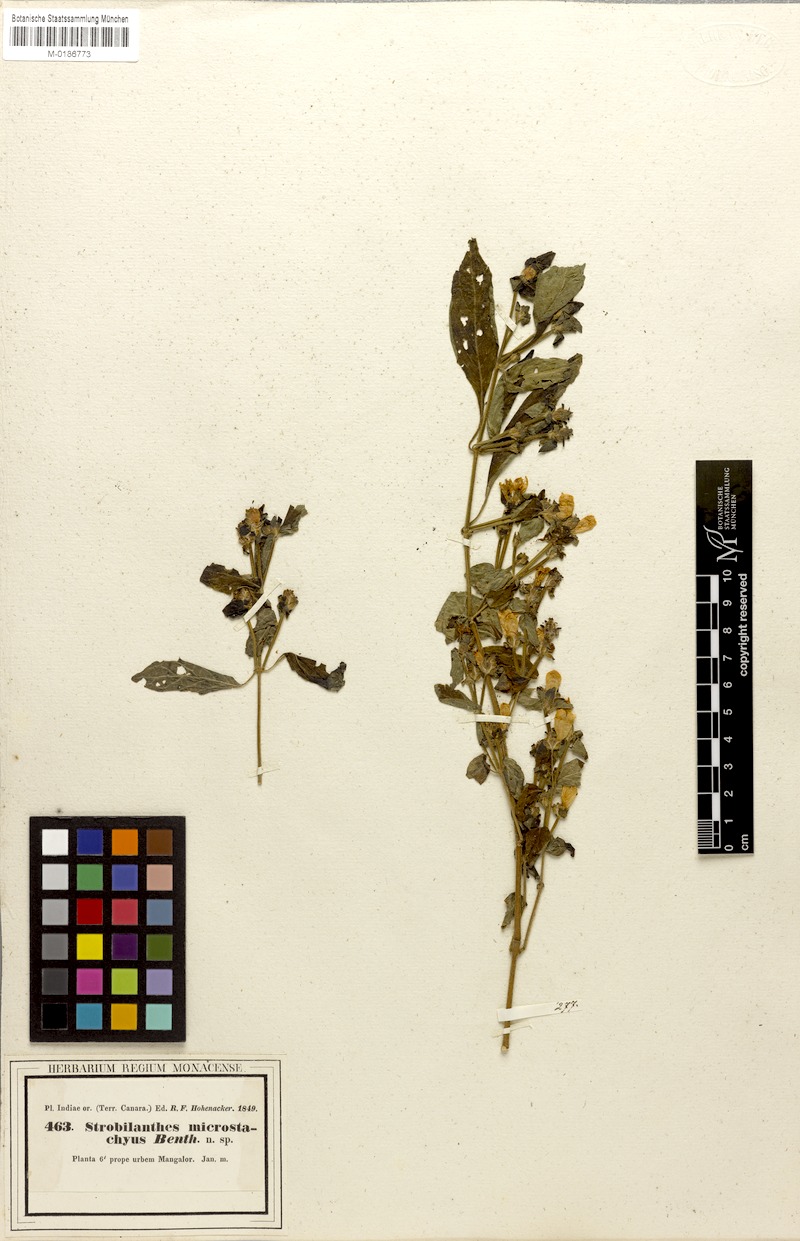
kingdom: Plantae
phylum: Tracheophyta
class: Magnoliopsida
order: Lamiales
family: Acanthaceae
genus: Strobilanthes
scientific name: Strobilanthes microstachya
